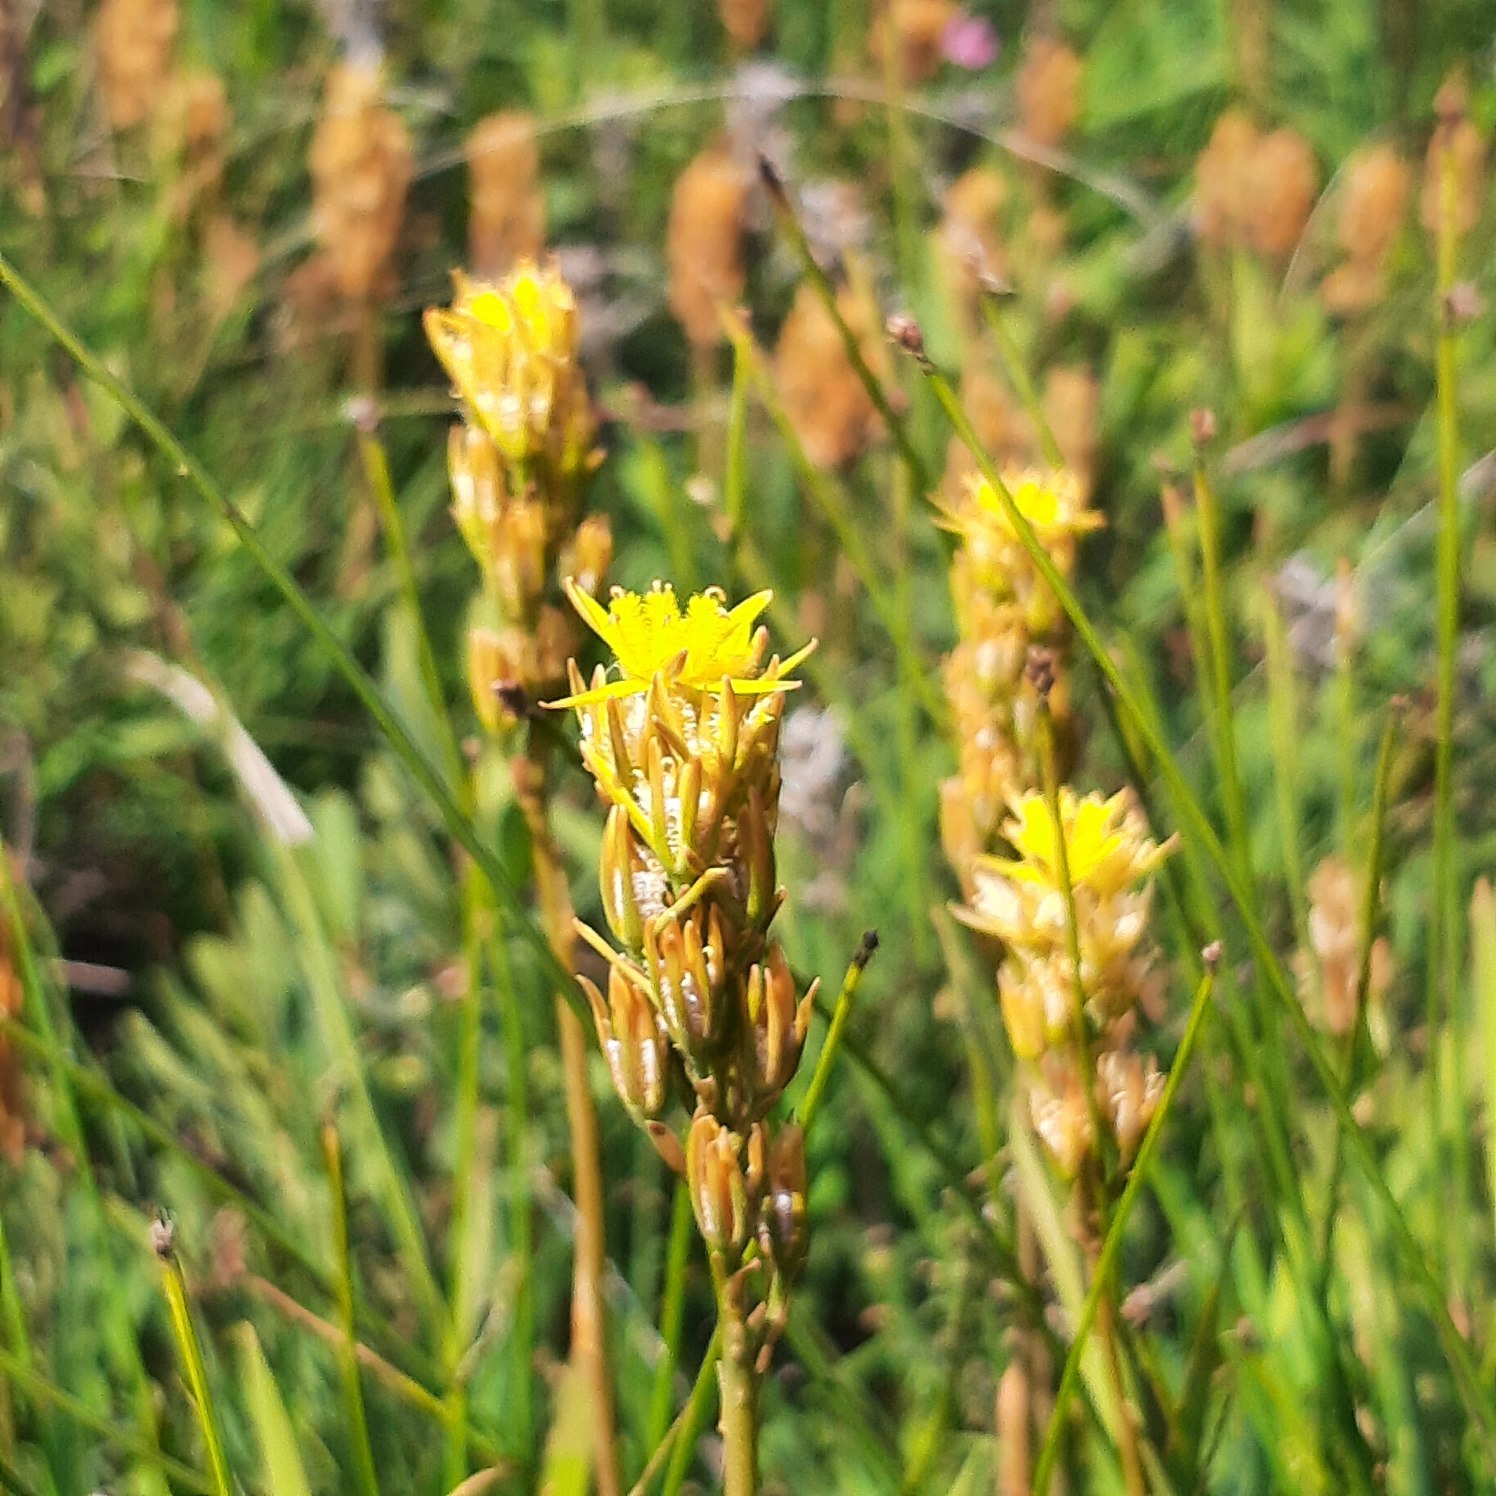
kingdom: Plantae
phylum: Tracheophyta
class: Liliopsida
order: Dioscoreales
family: Nartheciaceae
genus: Narthecium
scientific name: Narthecium ossifragum
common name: Benbræk
